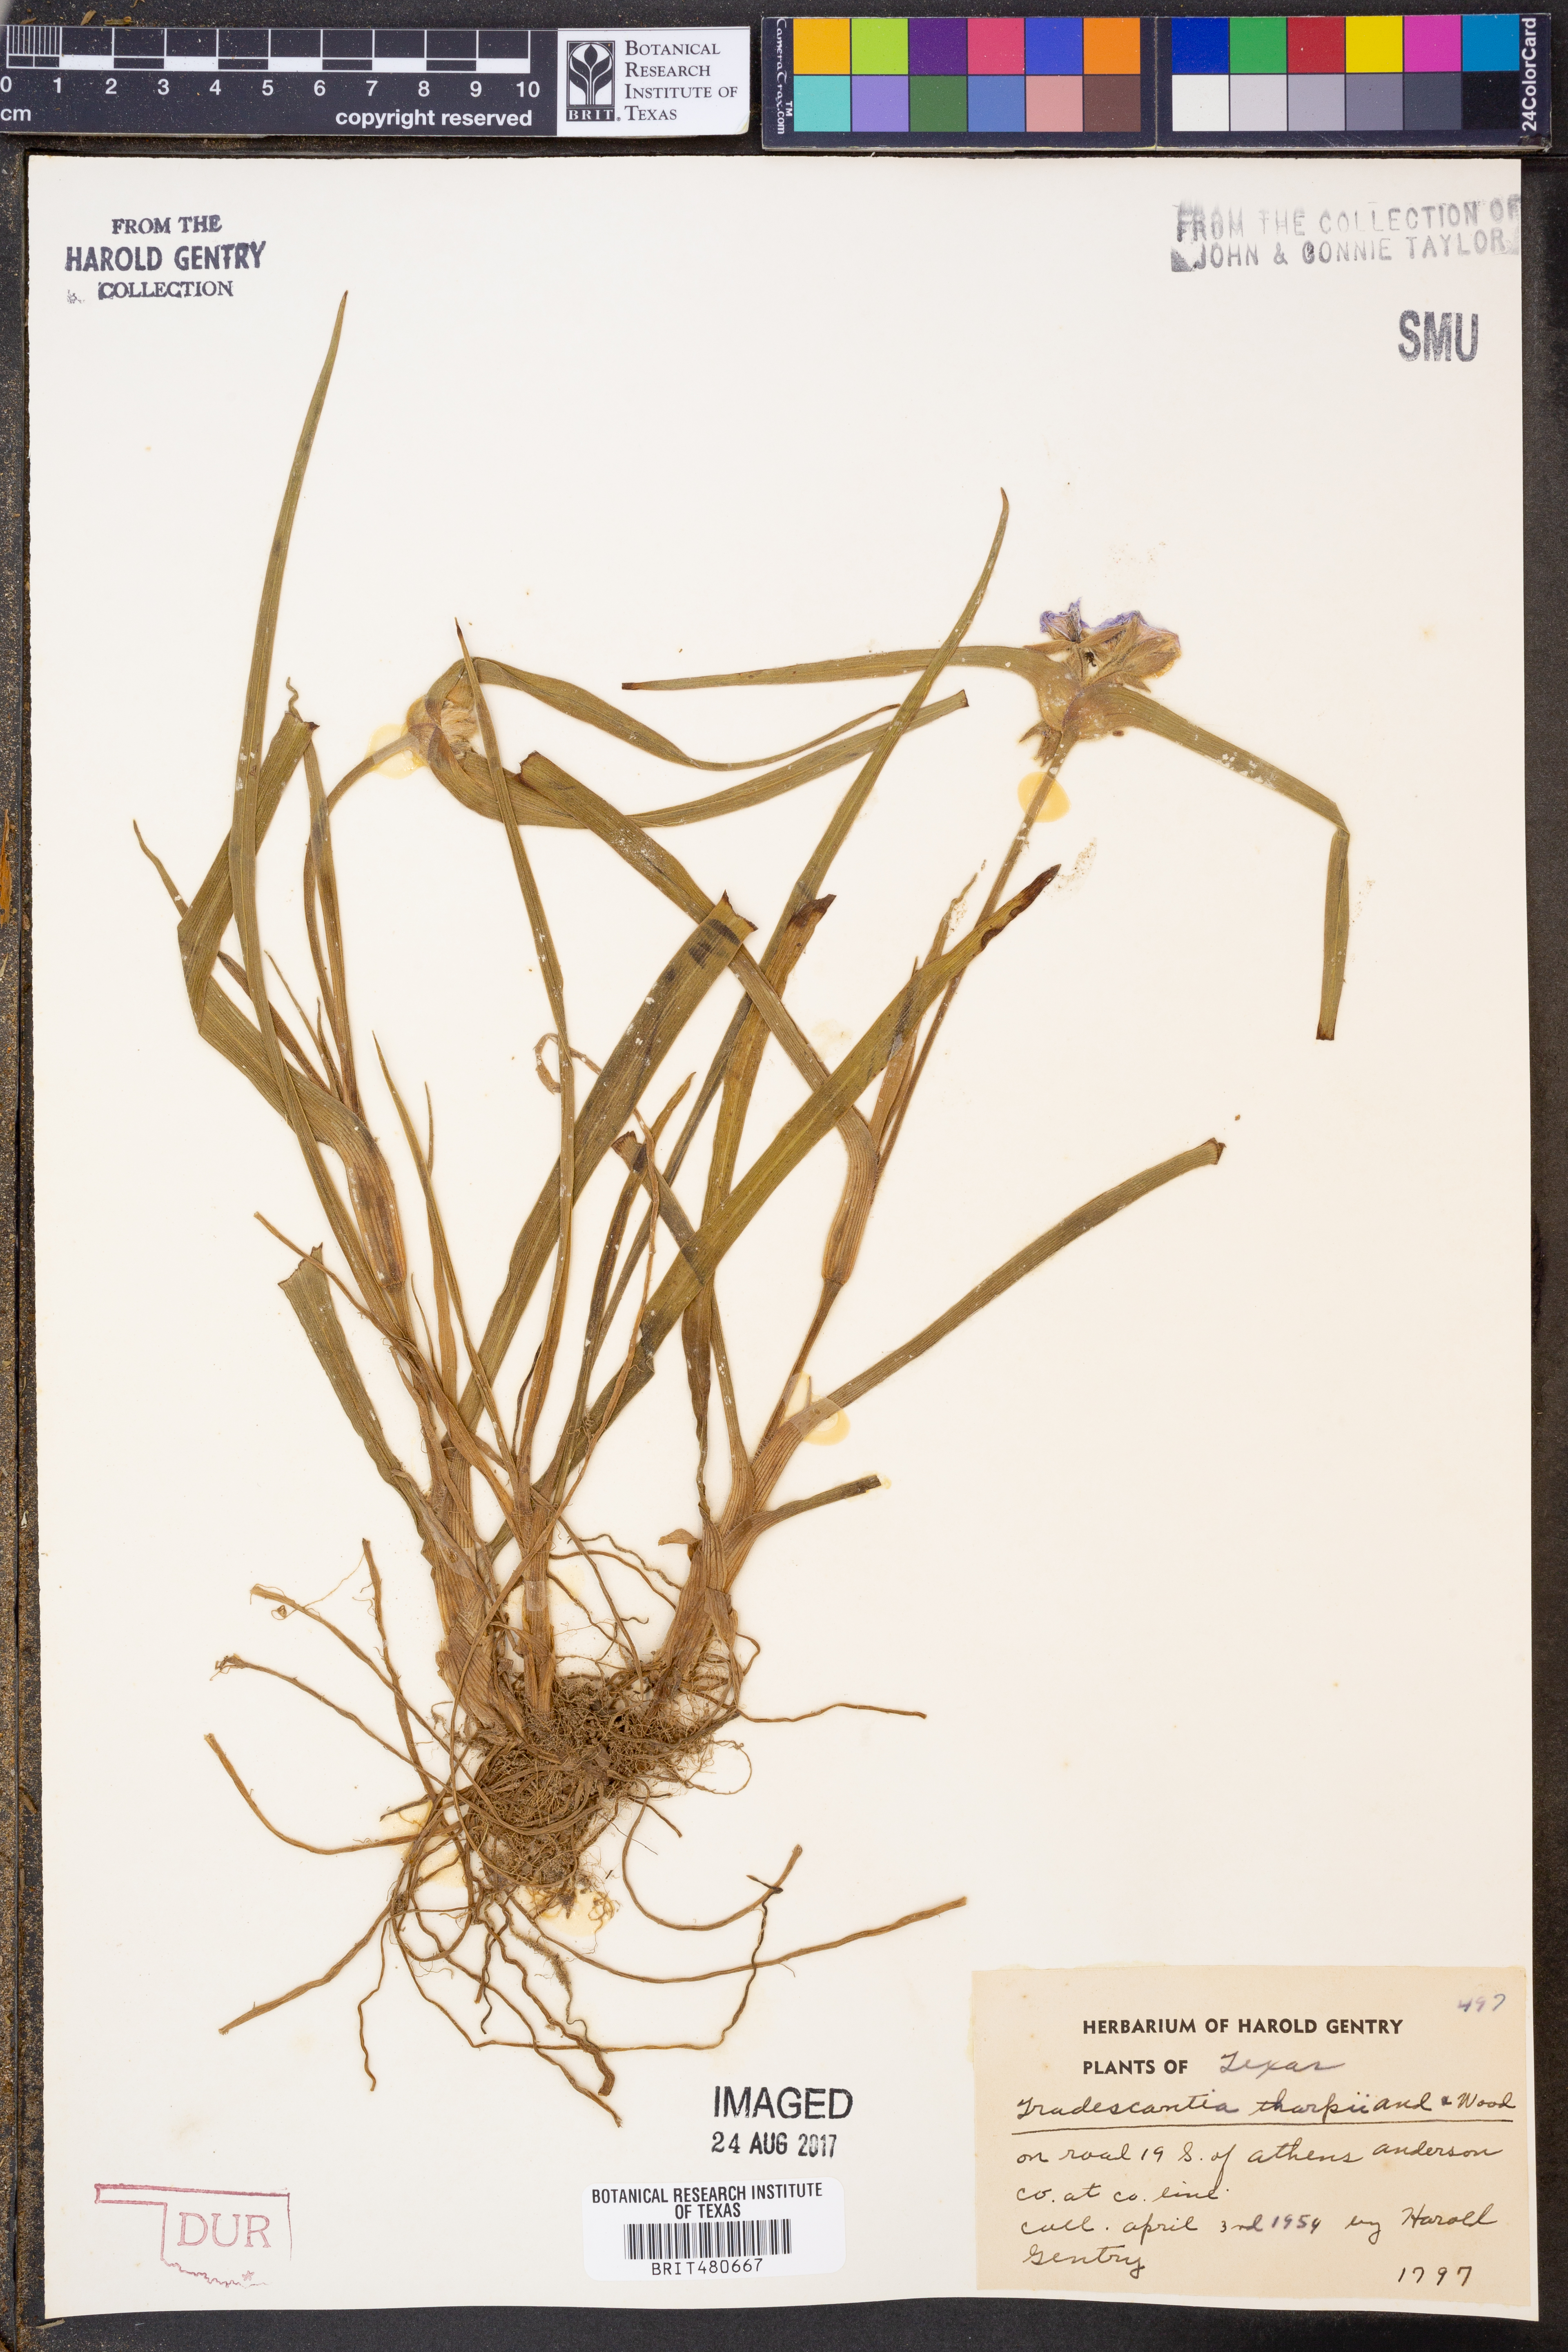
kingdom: Plantae
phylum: Tracheophyta
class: Liliopsida
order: Commelinales
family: Commelinaceae
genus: Tradescantia
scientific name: Tradescantia tharpii
